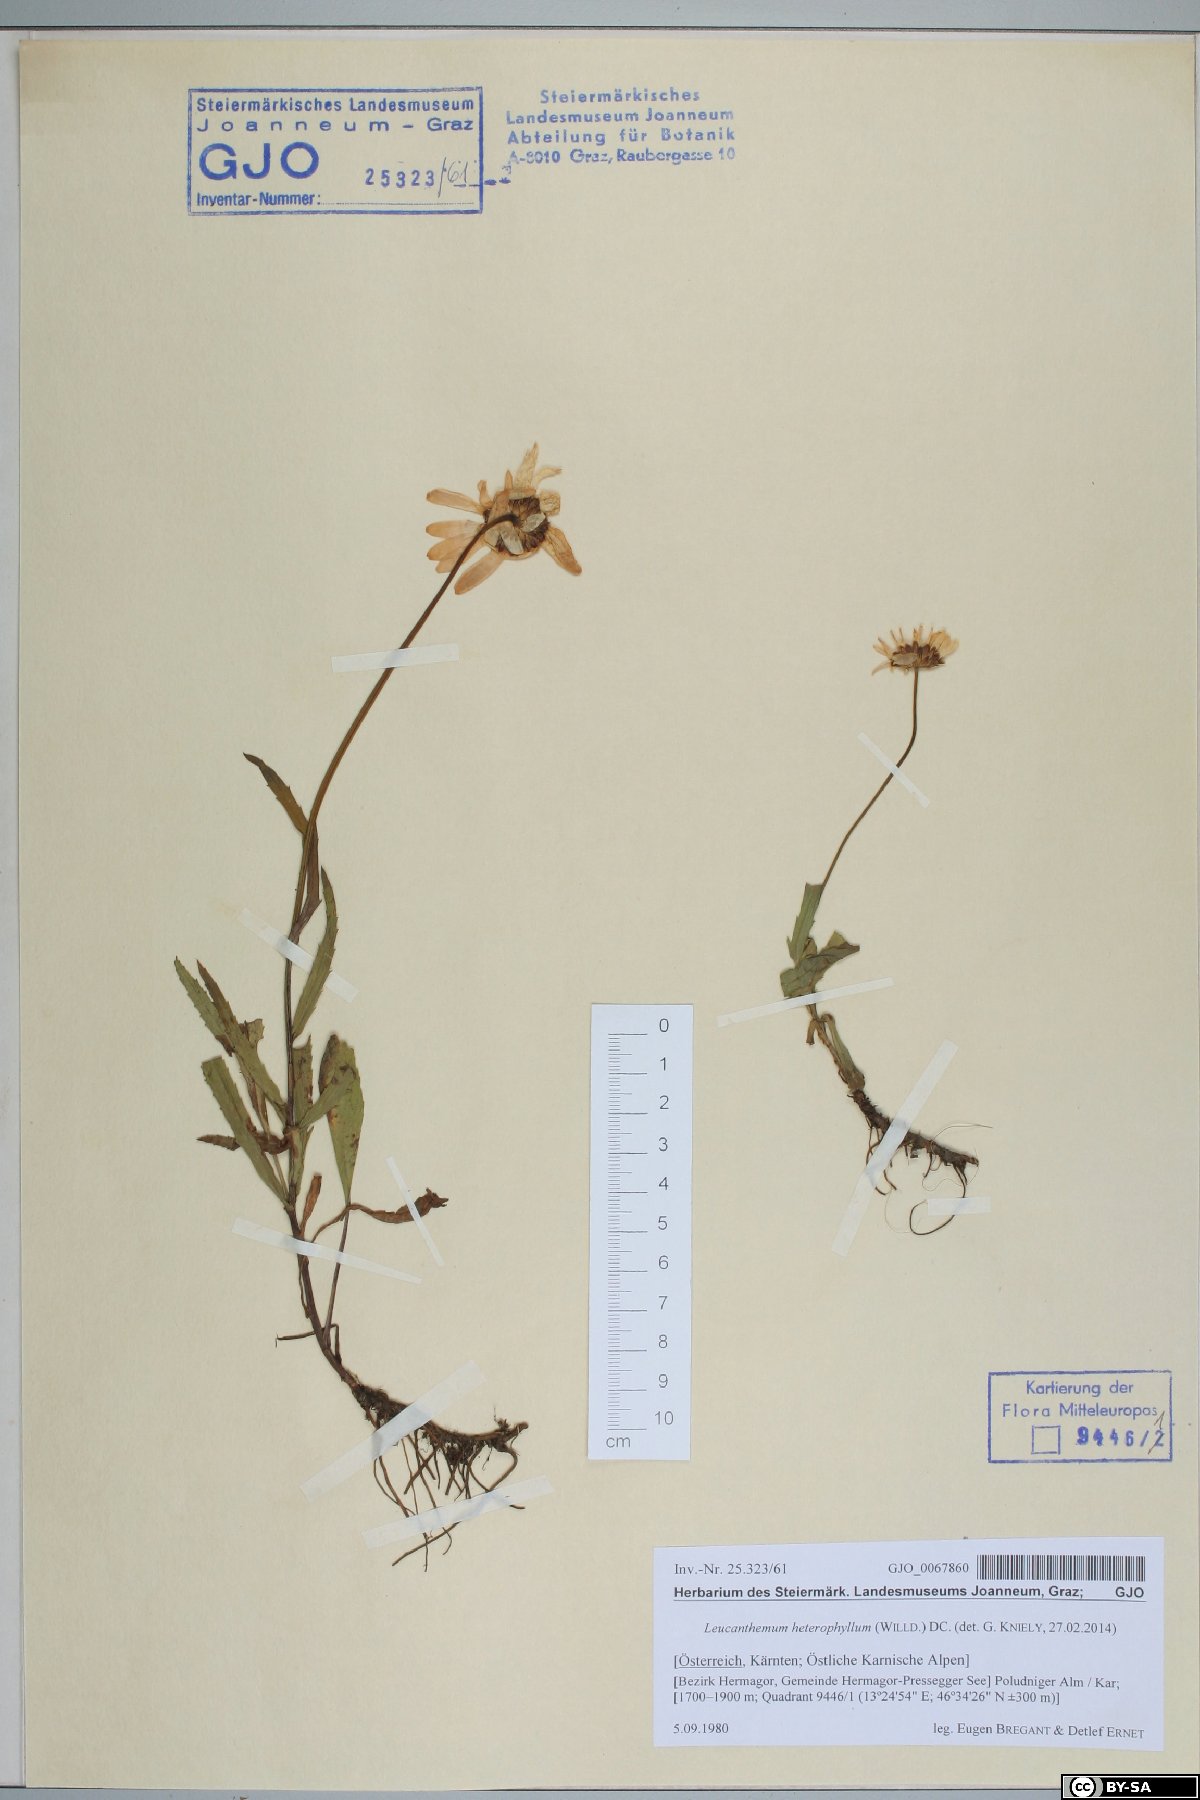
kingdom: Plantae
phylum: Tracheophyta
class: Magnoliopsida
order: Asterales
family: Asteraceae
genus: Leucanthemum
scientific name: Leucanthemum heterophyllum
